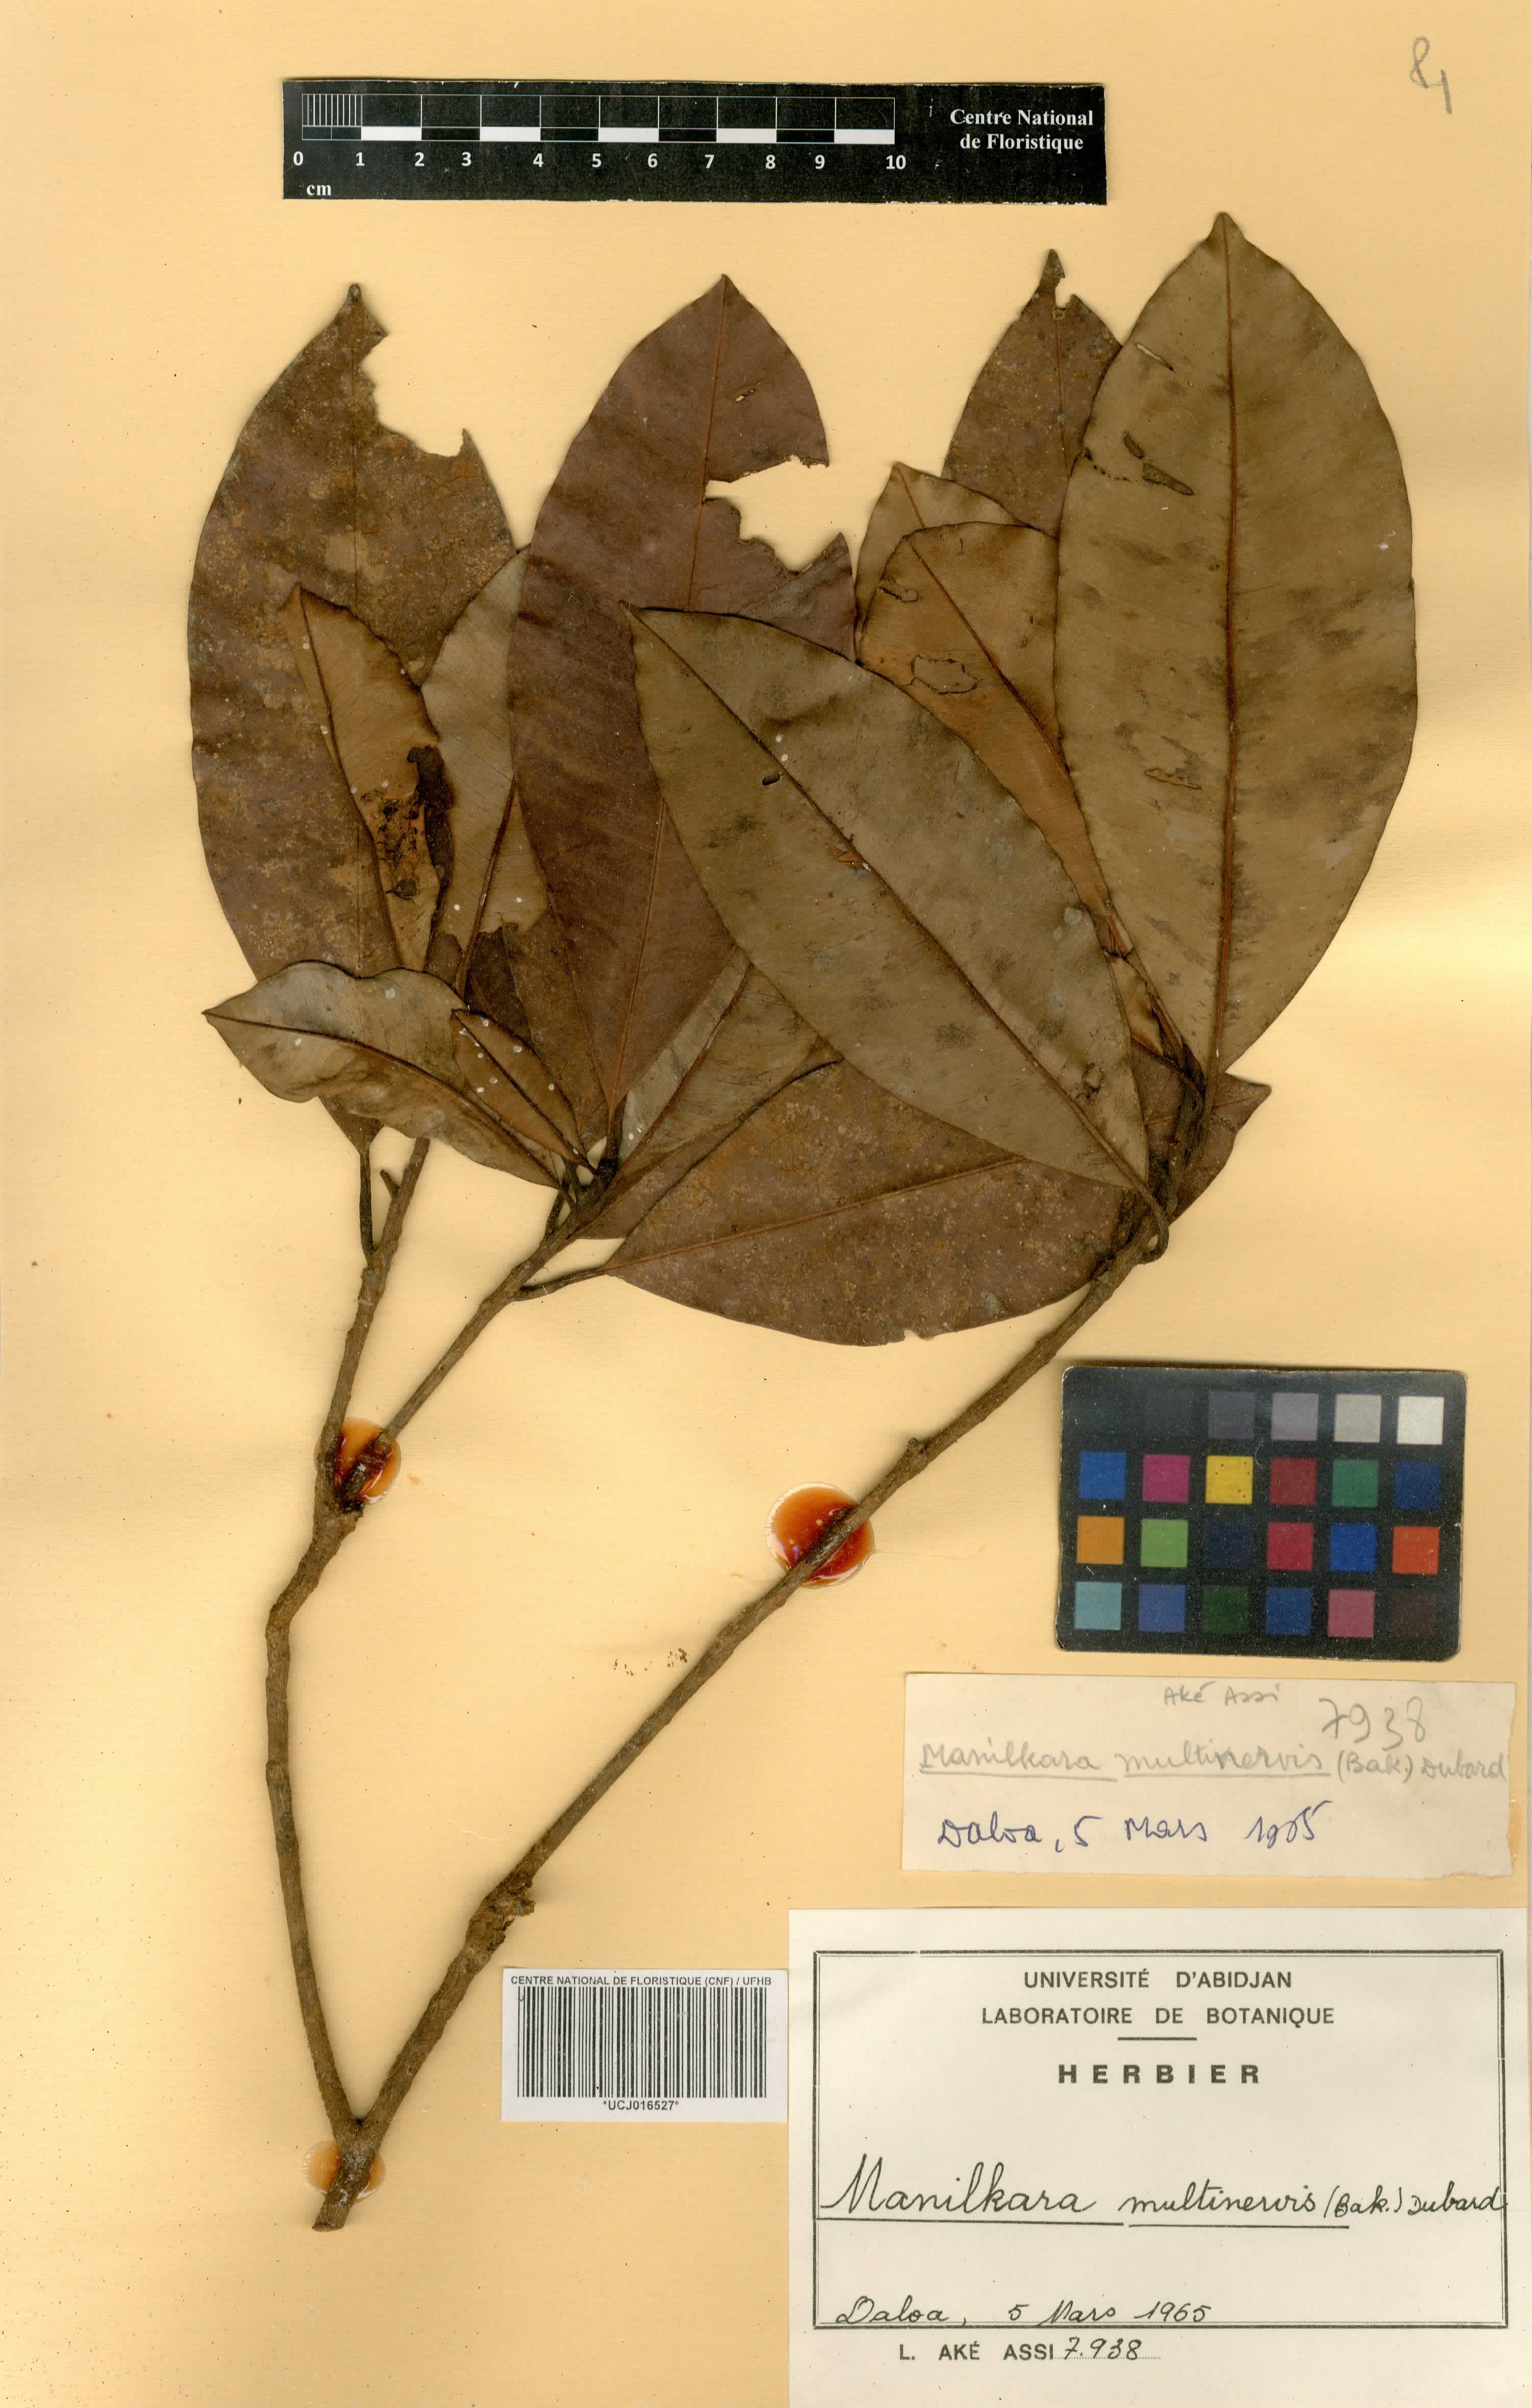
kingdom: Plantae
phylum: Tracheophyta
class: Magnoliopsida
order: Ericales
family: Sapotaceae
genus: Manilkara
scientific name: Manilkara obovata
